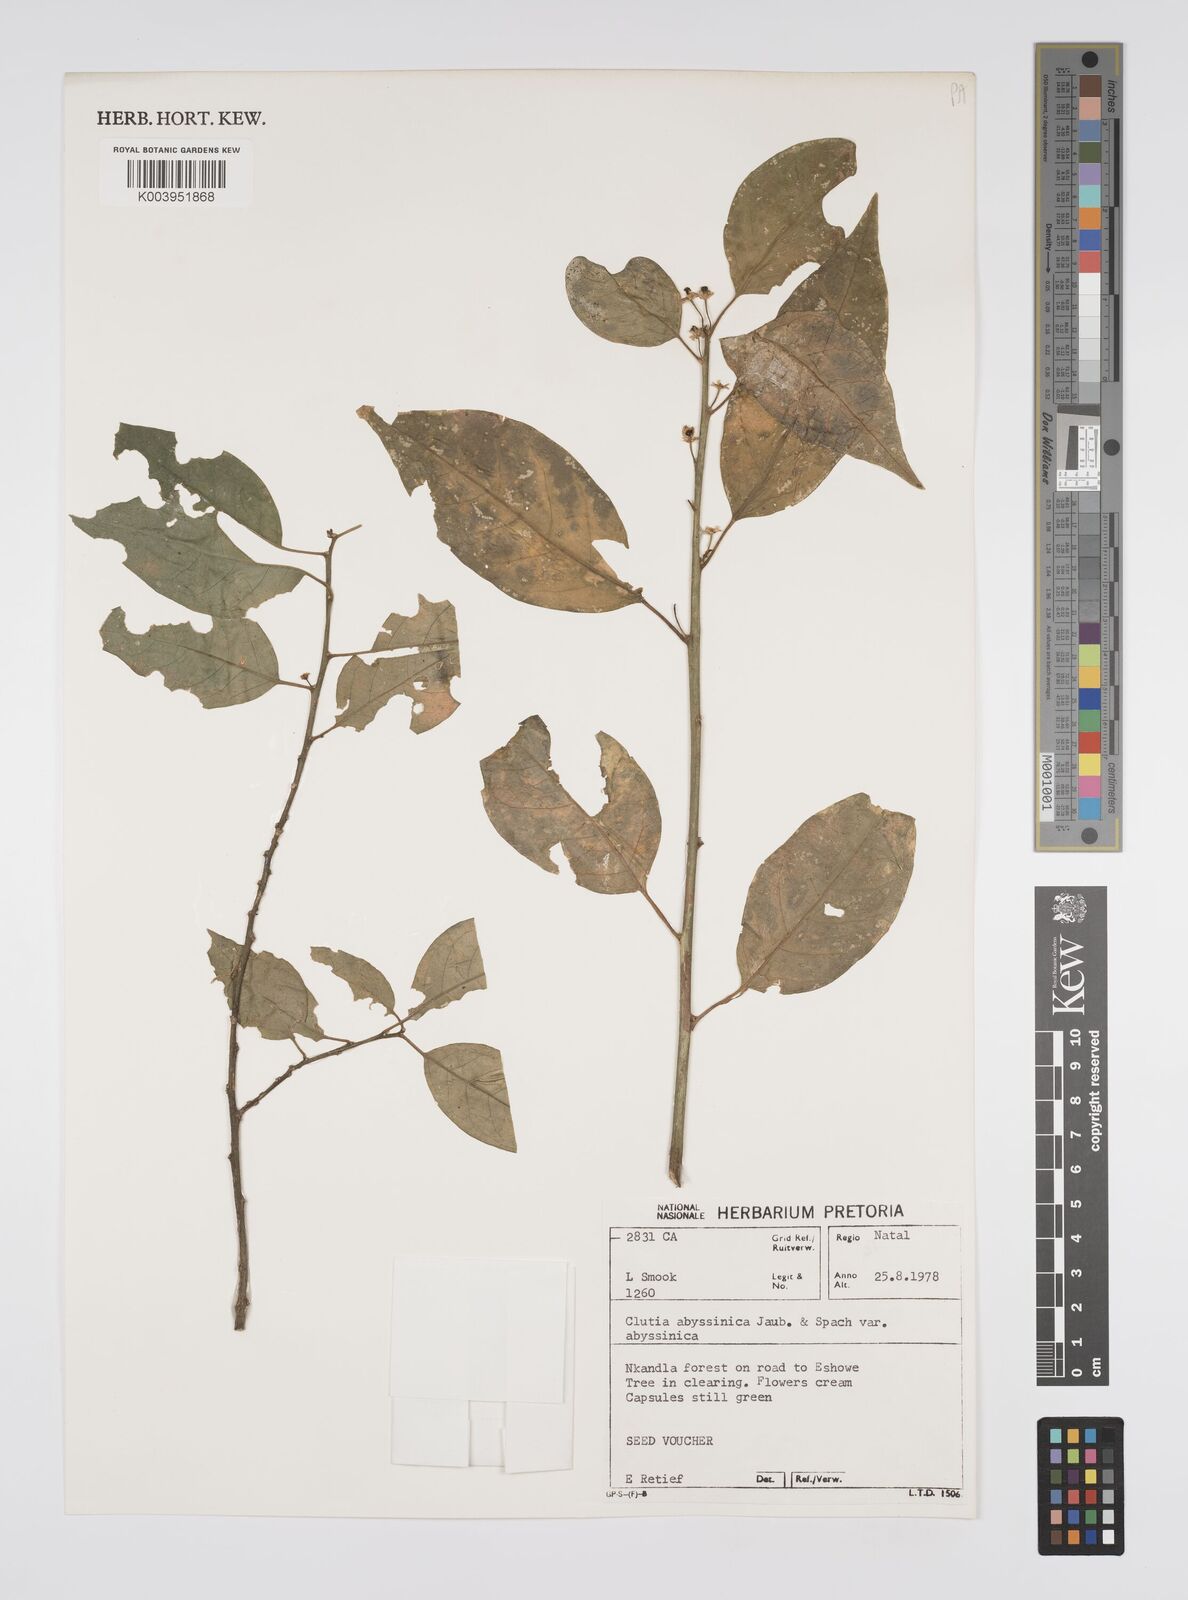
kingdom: Plantae
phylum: Tracheophyta
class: Magnoliopsida
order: Malpighiales
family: Peraceae
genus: Clutia
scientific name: Clutia abyssinica
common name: Large lightning bush
